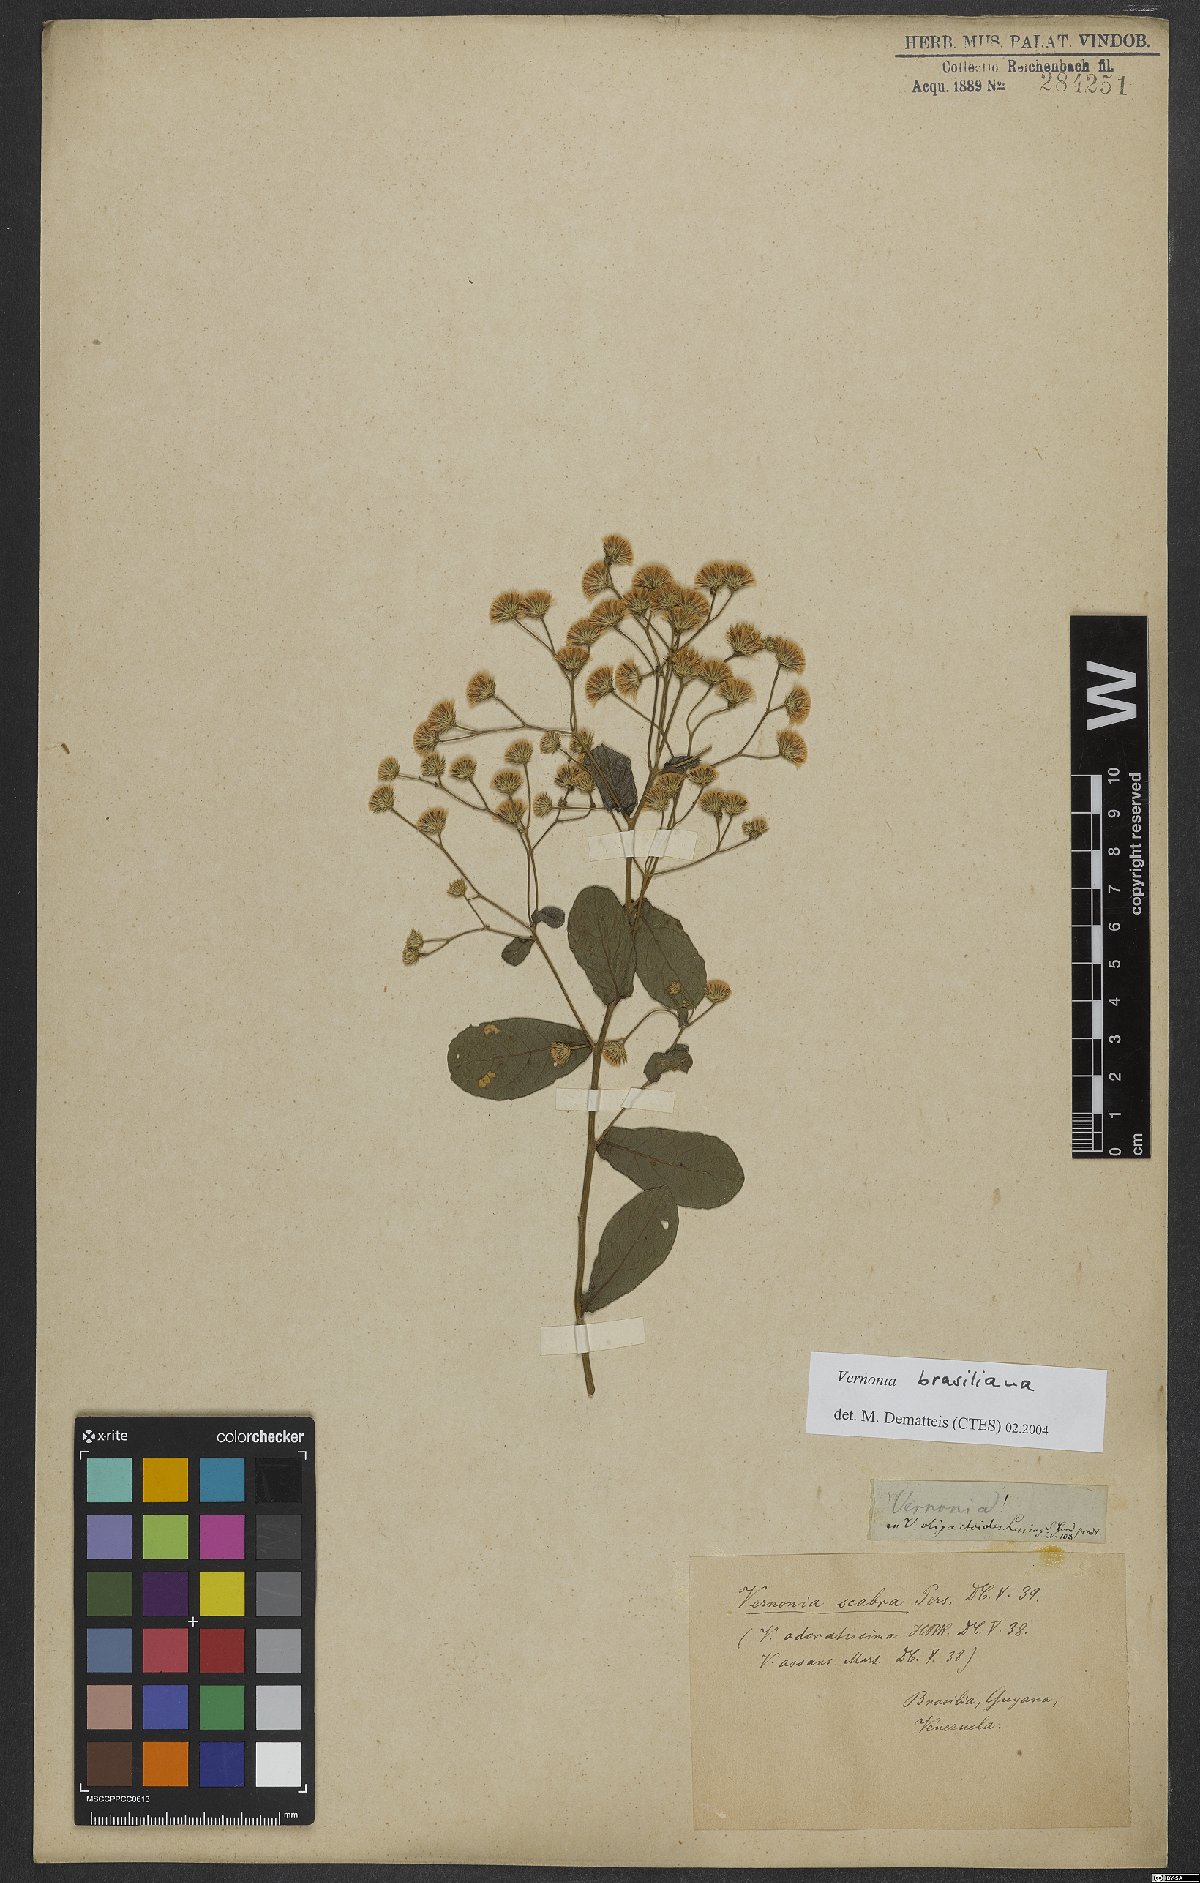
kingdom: Plantae
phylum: Tracheophyta
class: Magnoliopsida
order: Asterales
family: Asteraceae
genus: Vernonanthura
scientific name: Vernonanthura brasiliana
